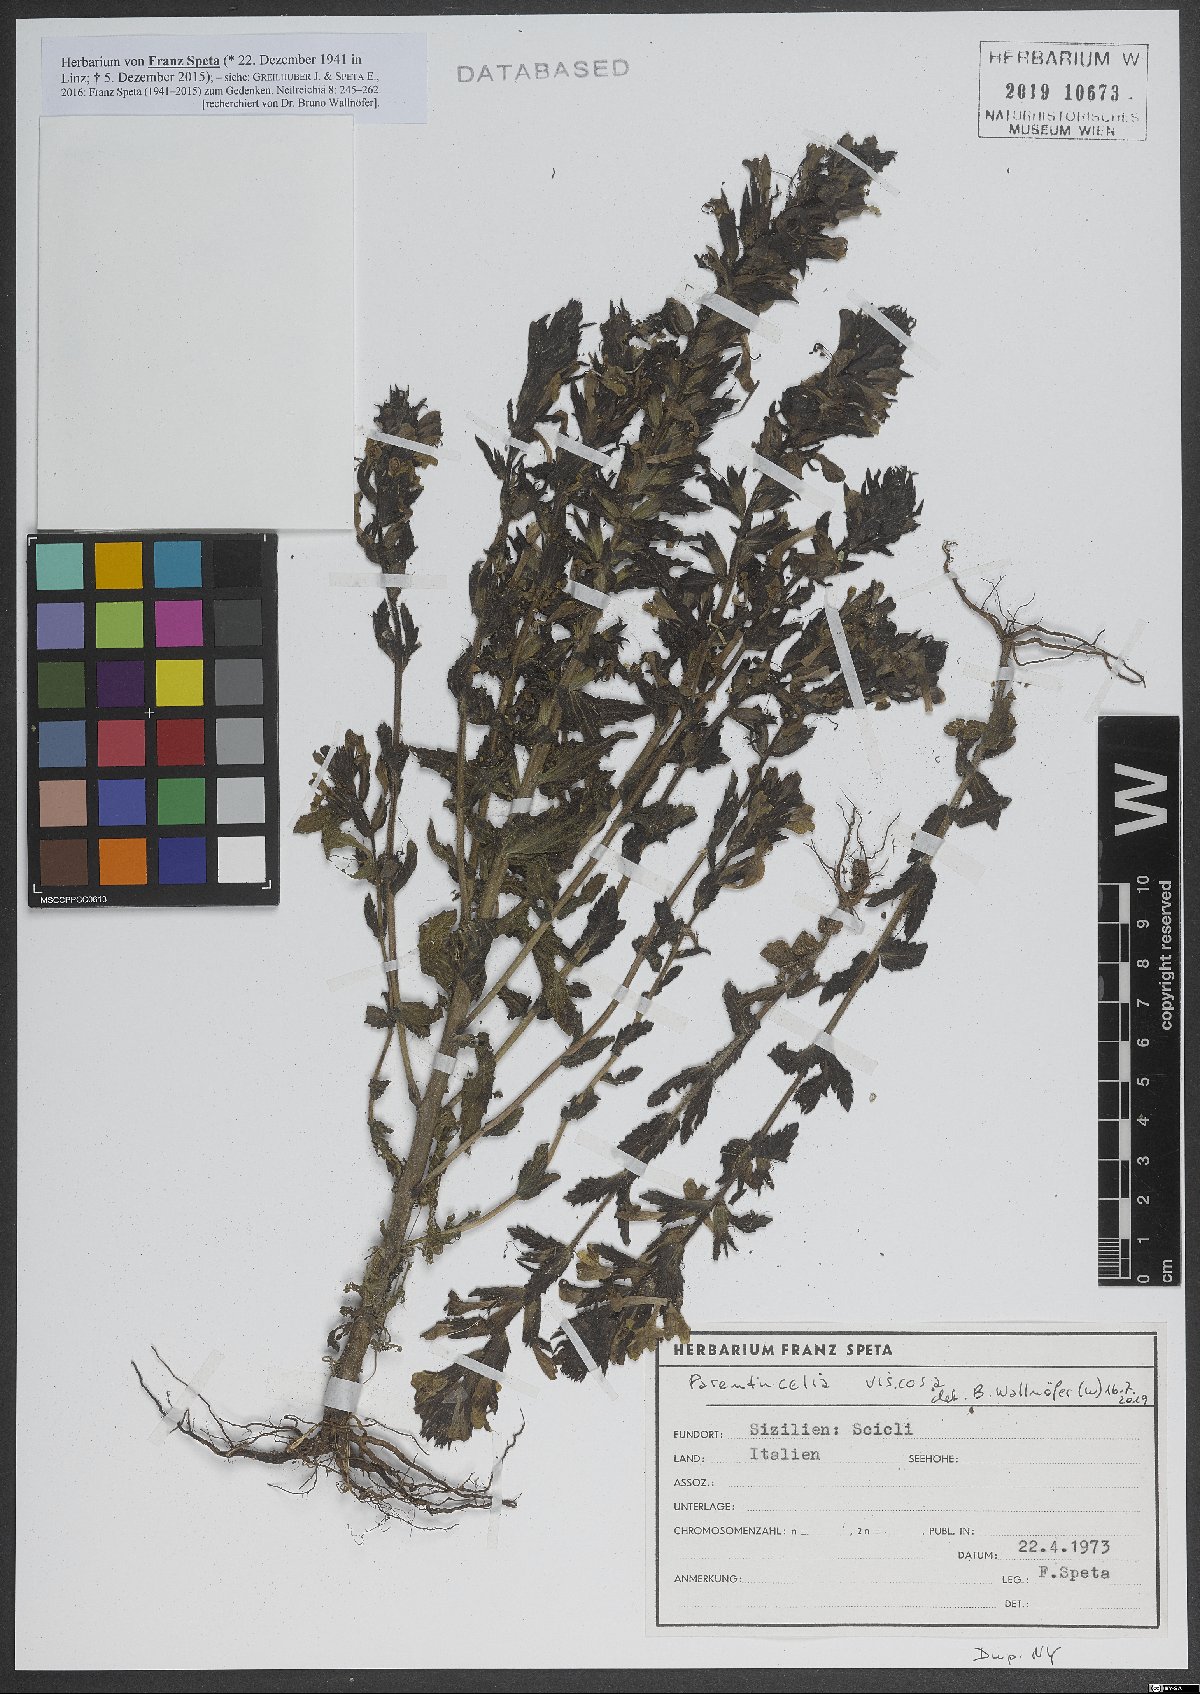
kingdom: Plantae
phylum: Tracheophyta
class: Magnoliopsida
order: Lamiales
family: Orobanchaceae
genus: Bellardia
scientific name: Bellardia viscosa
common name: Sticky parentucellia
